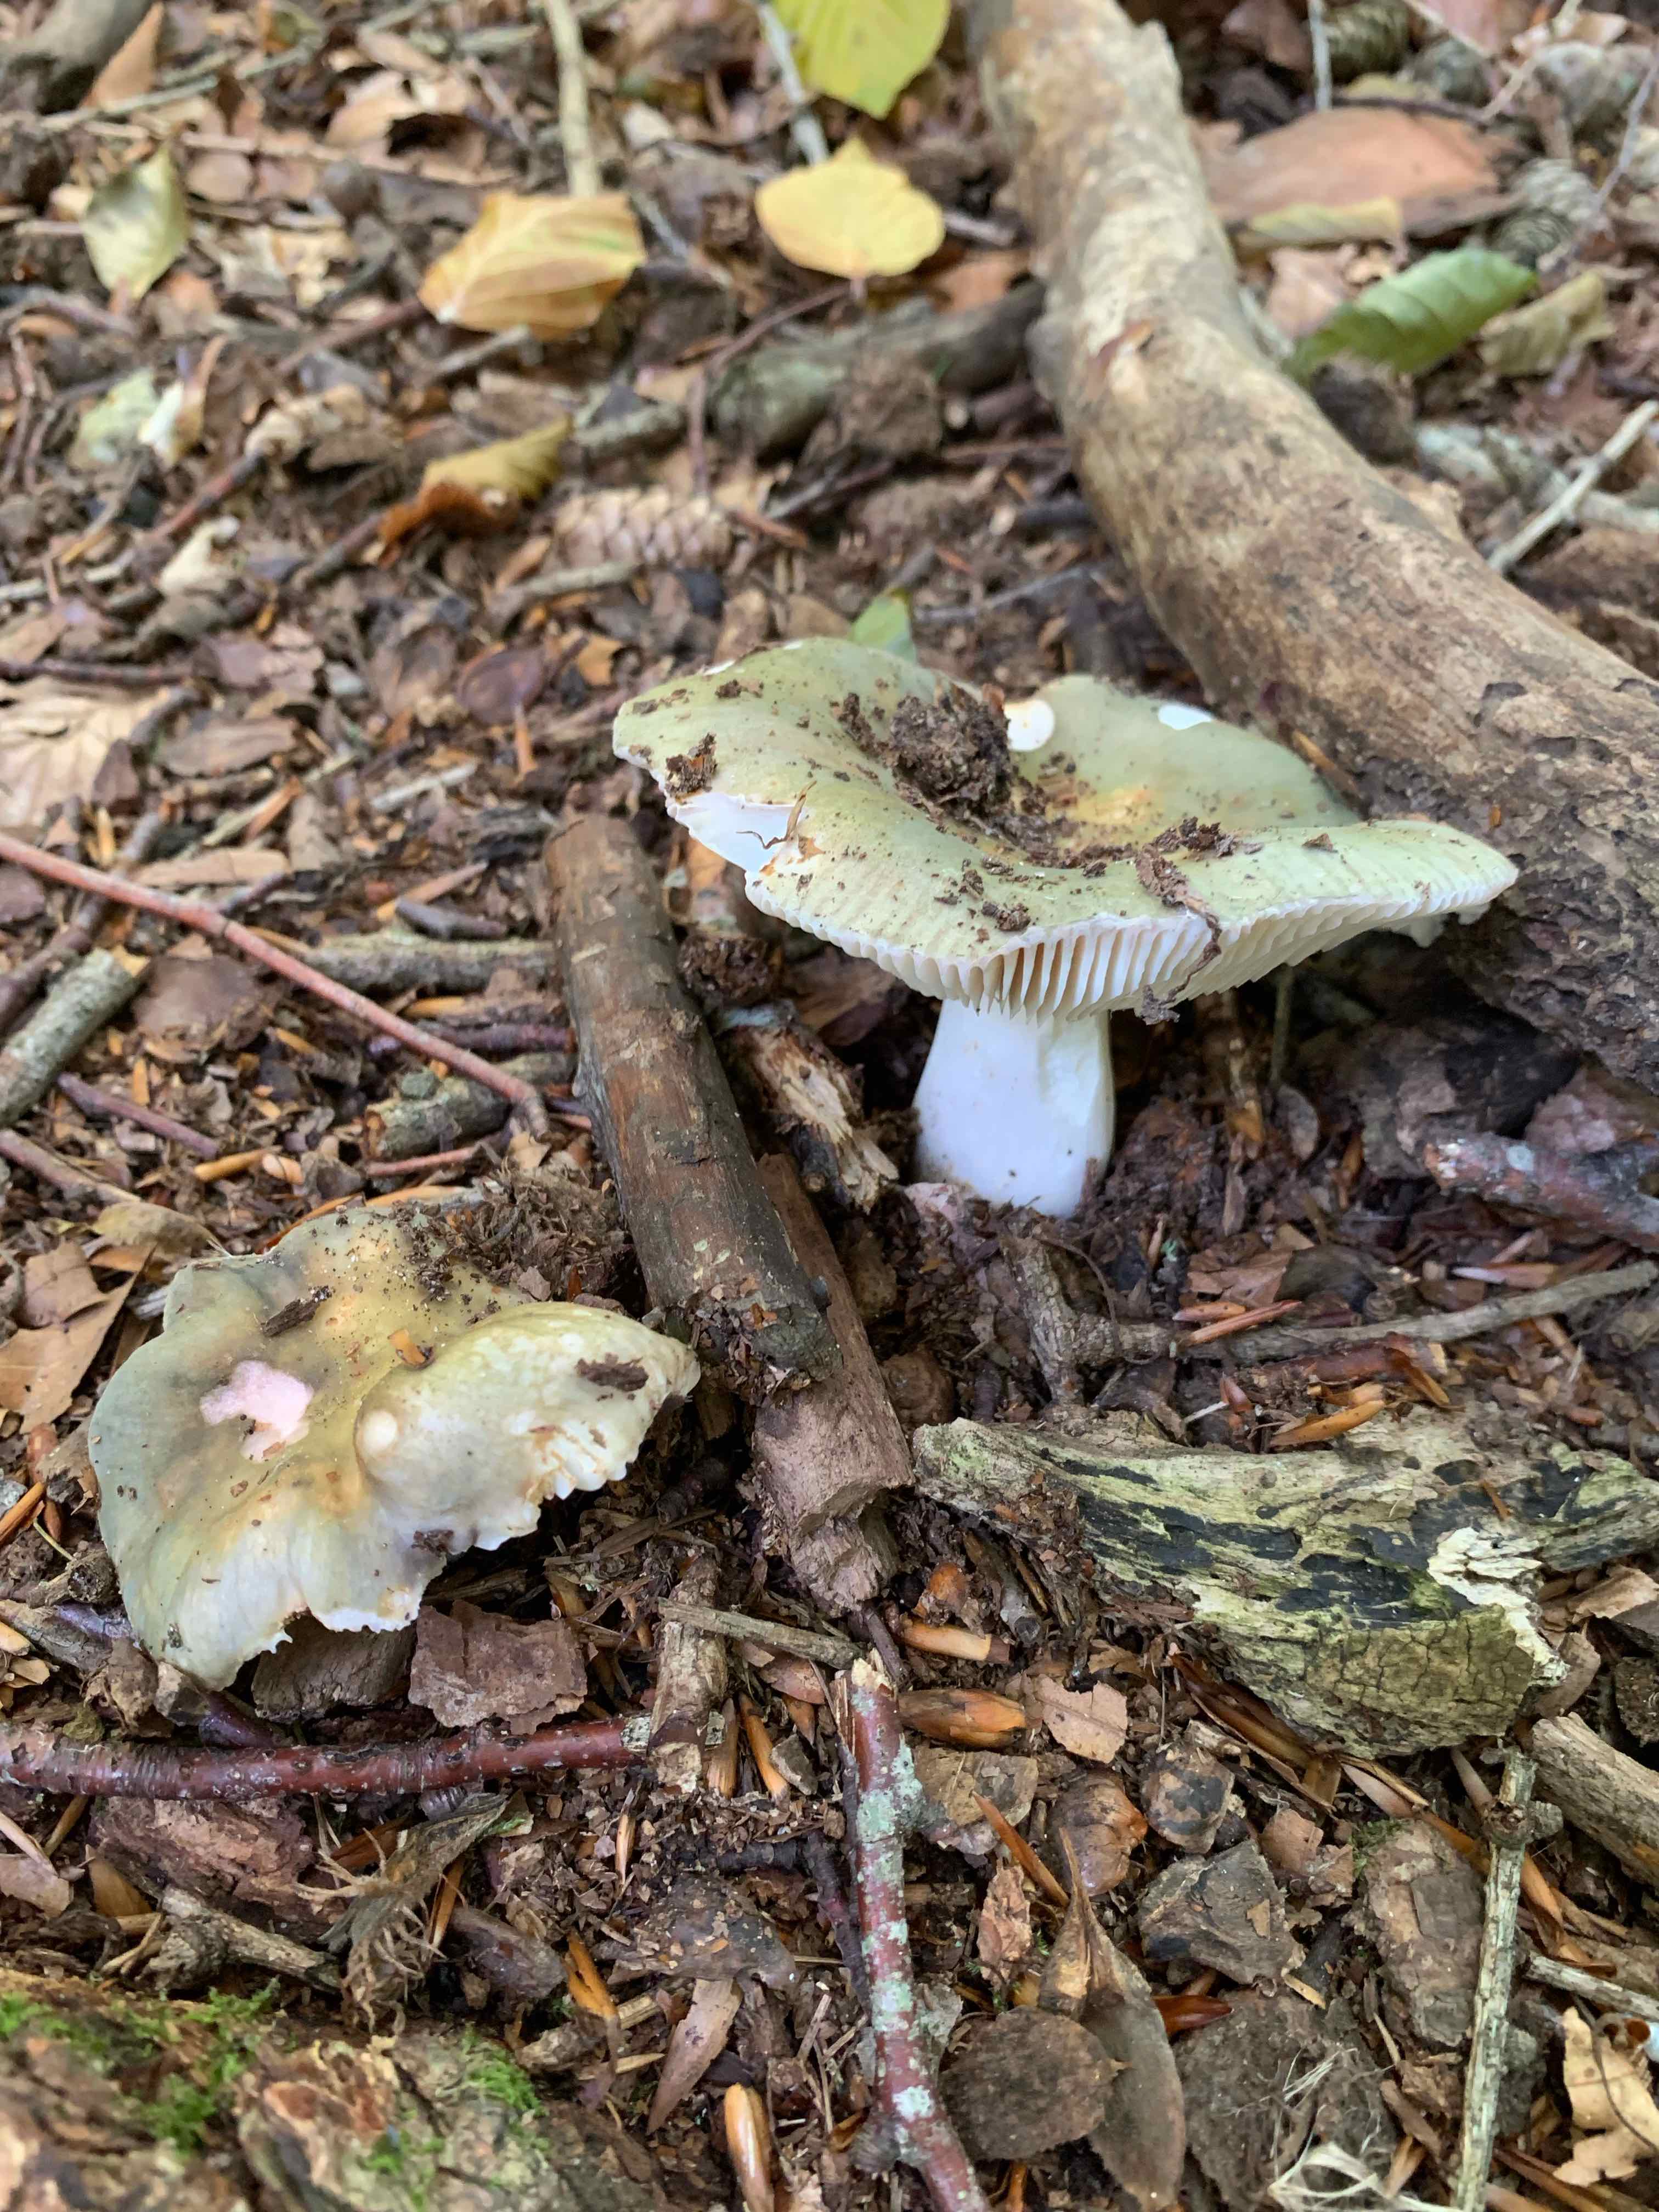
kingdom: Fungi
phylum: Basidiomycota
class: Agaricomycetes
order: Russulales
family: Russulaceae
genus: Russula
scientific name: Russula
